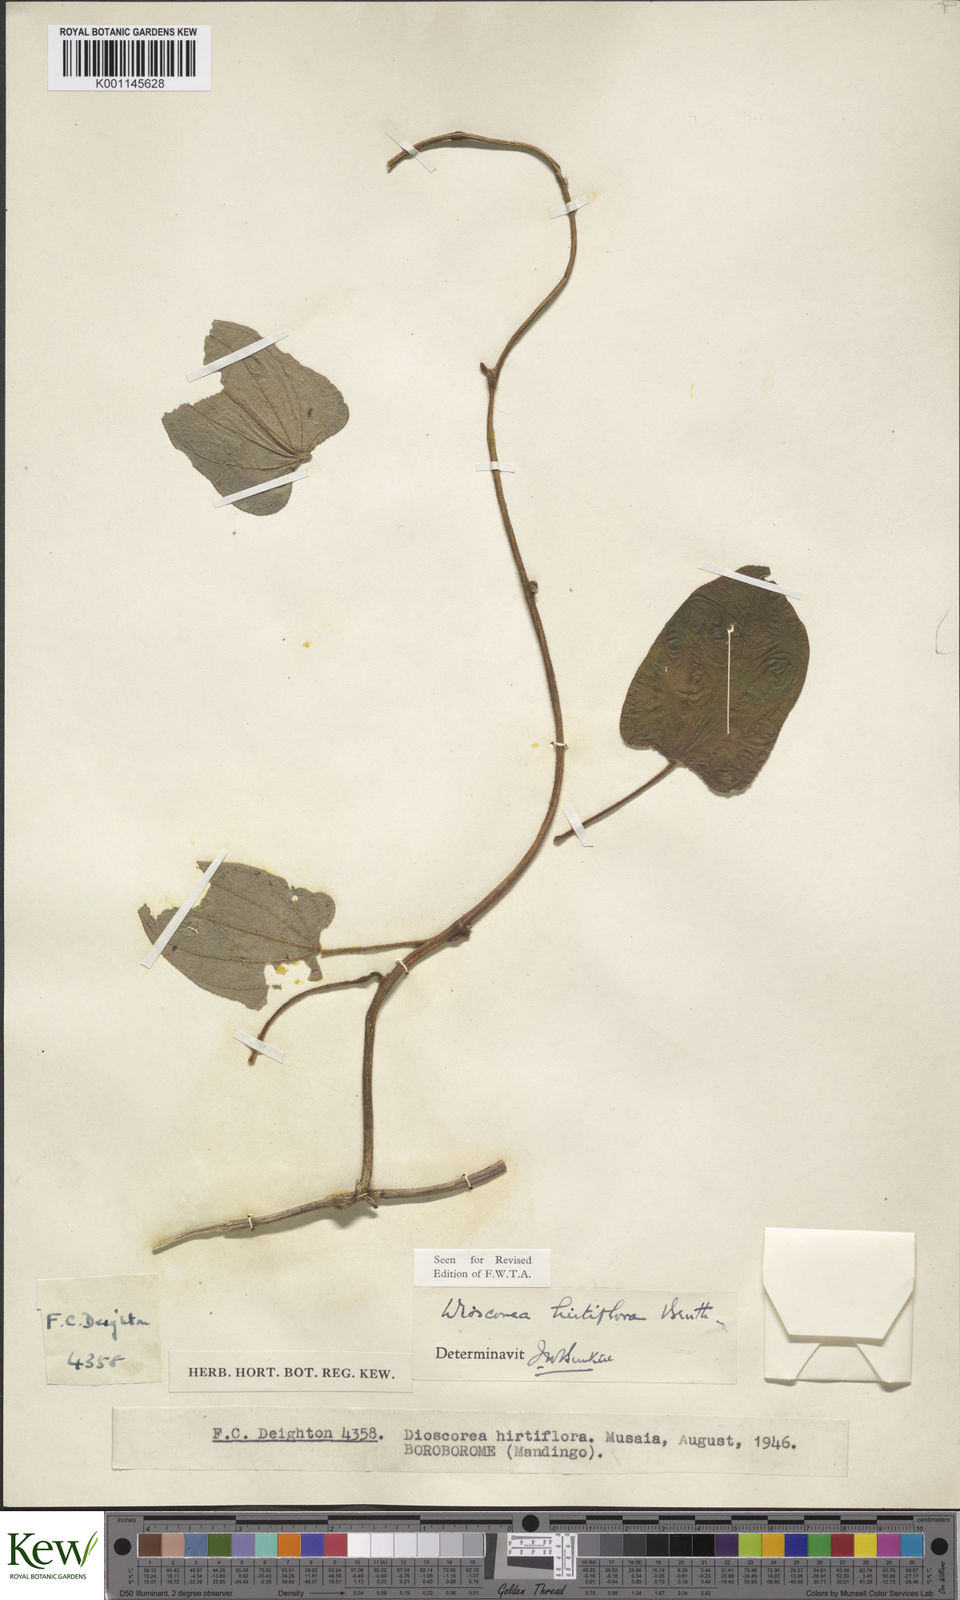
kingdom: Plantae
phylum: Tracheophyta
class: Liliopsida
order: Dioscoreales
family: Dioscoreaceae
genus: Dioscorea
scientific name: Dioscorea hirtiflora
